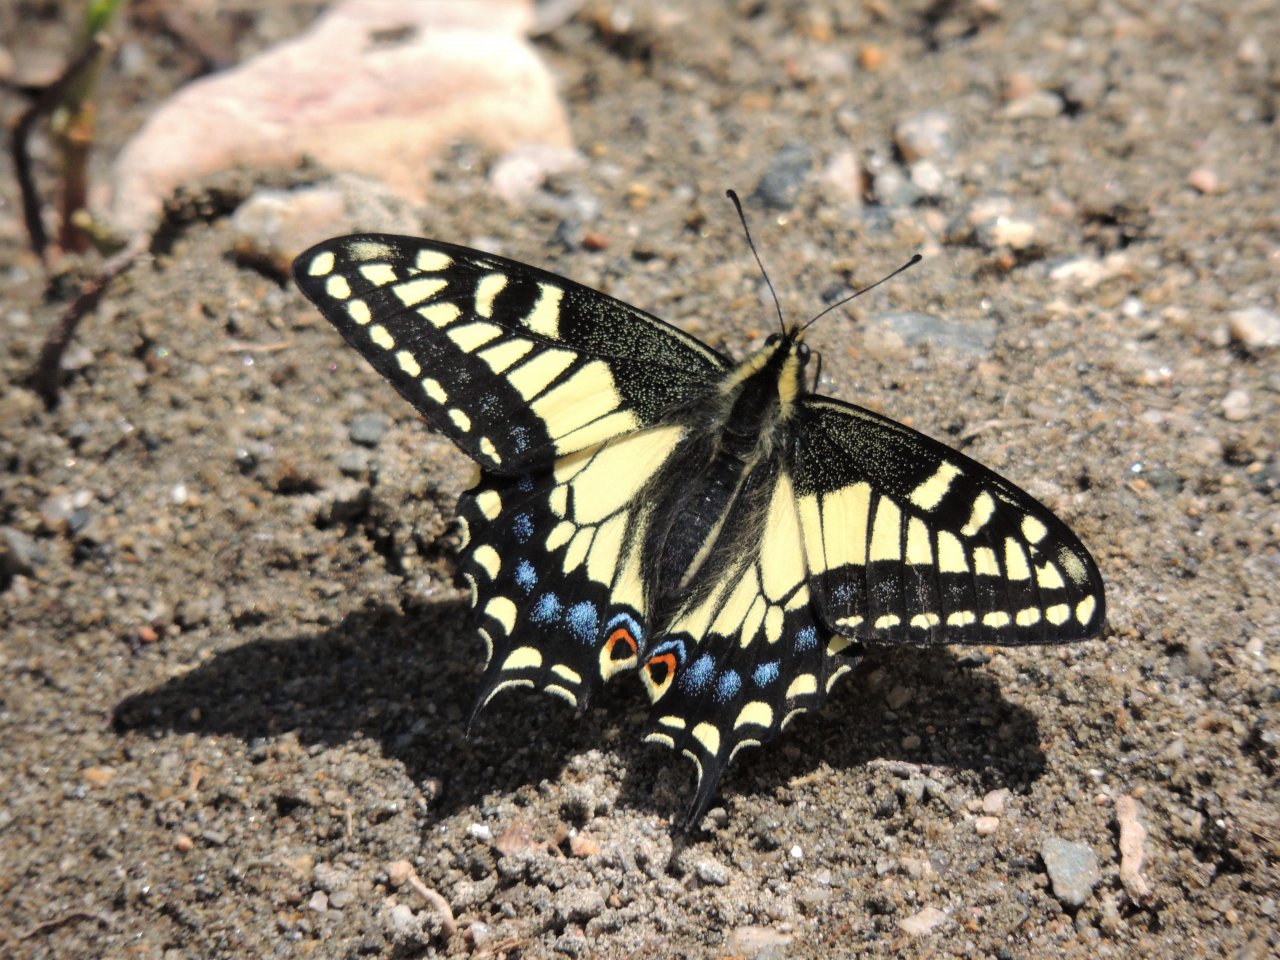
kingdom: Animalia
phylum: Arthropoda
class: Insecta
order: Lepidoptera
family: Papilionidae
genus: Papilio
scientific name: Papilio machaon
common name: Old World Swallowtail
